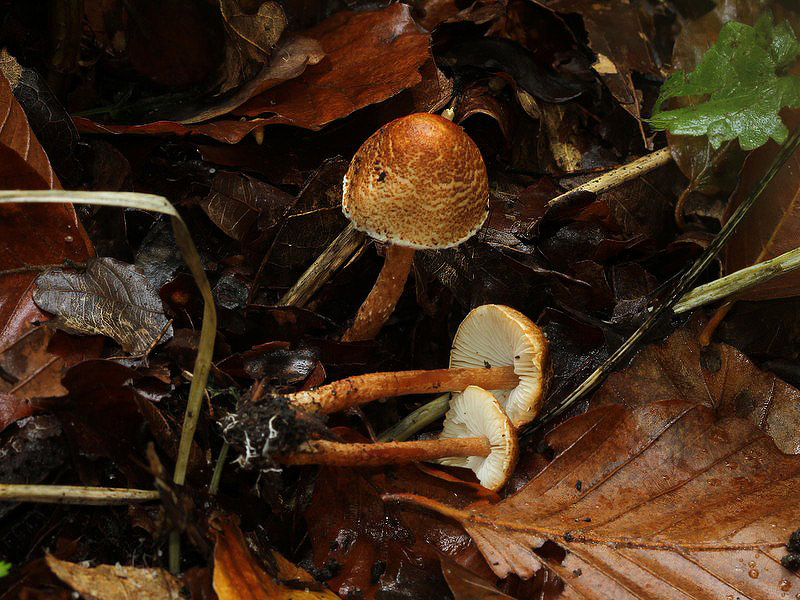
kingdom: Fungi
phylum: Basidiomycota
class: Agaricomycetes
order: Agaricales
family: Agaricaceae
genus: Lepiota
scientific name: Lepiota castanea
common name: kastaniebrun parasolhat
